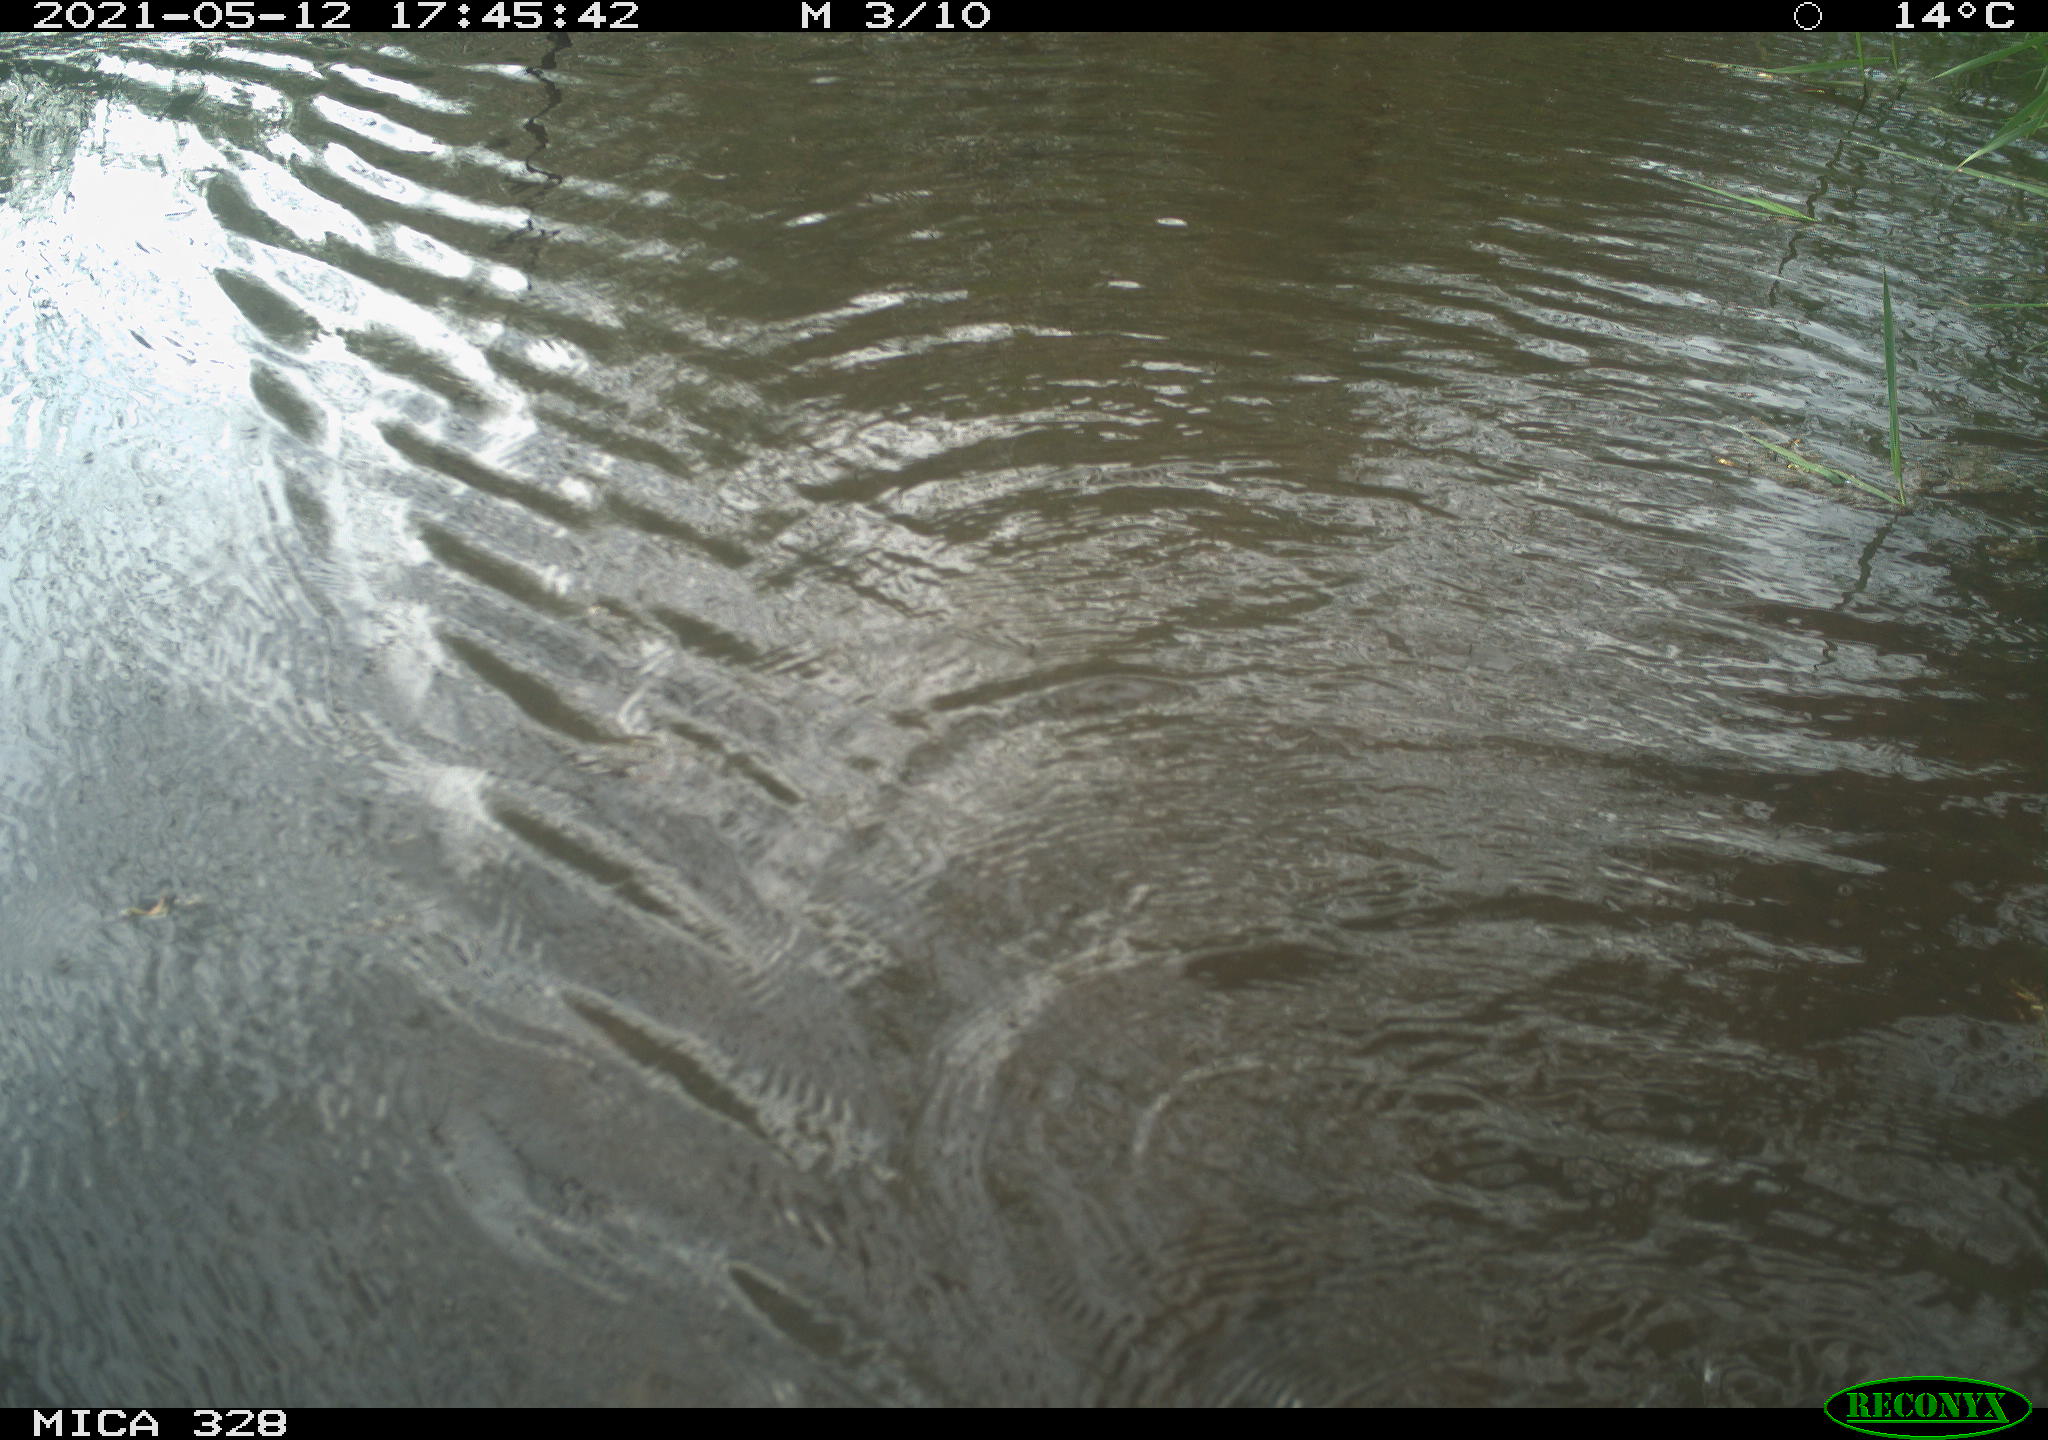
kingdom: Animalia
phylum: Chordata
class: Mammalia
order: Rodentia
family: Cricetidae
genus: Ondatra
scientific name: Ondatra zibethicus
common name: Muskrat
